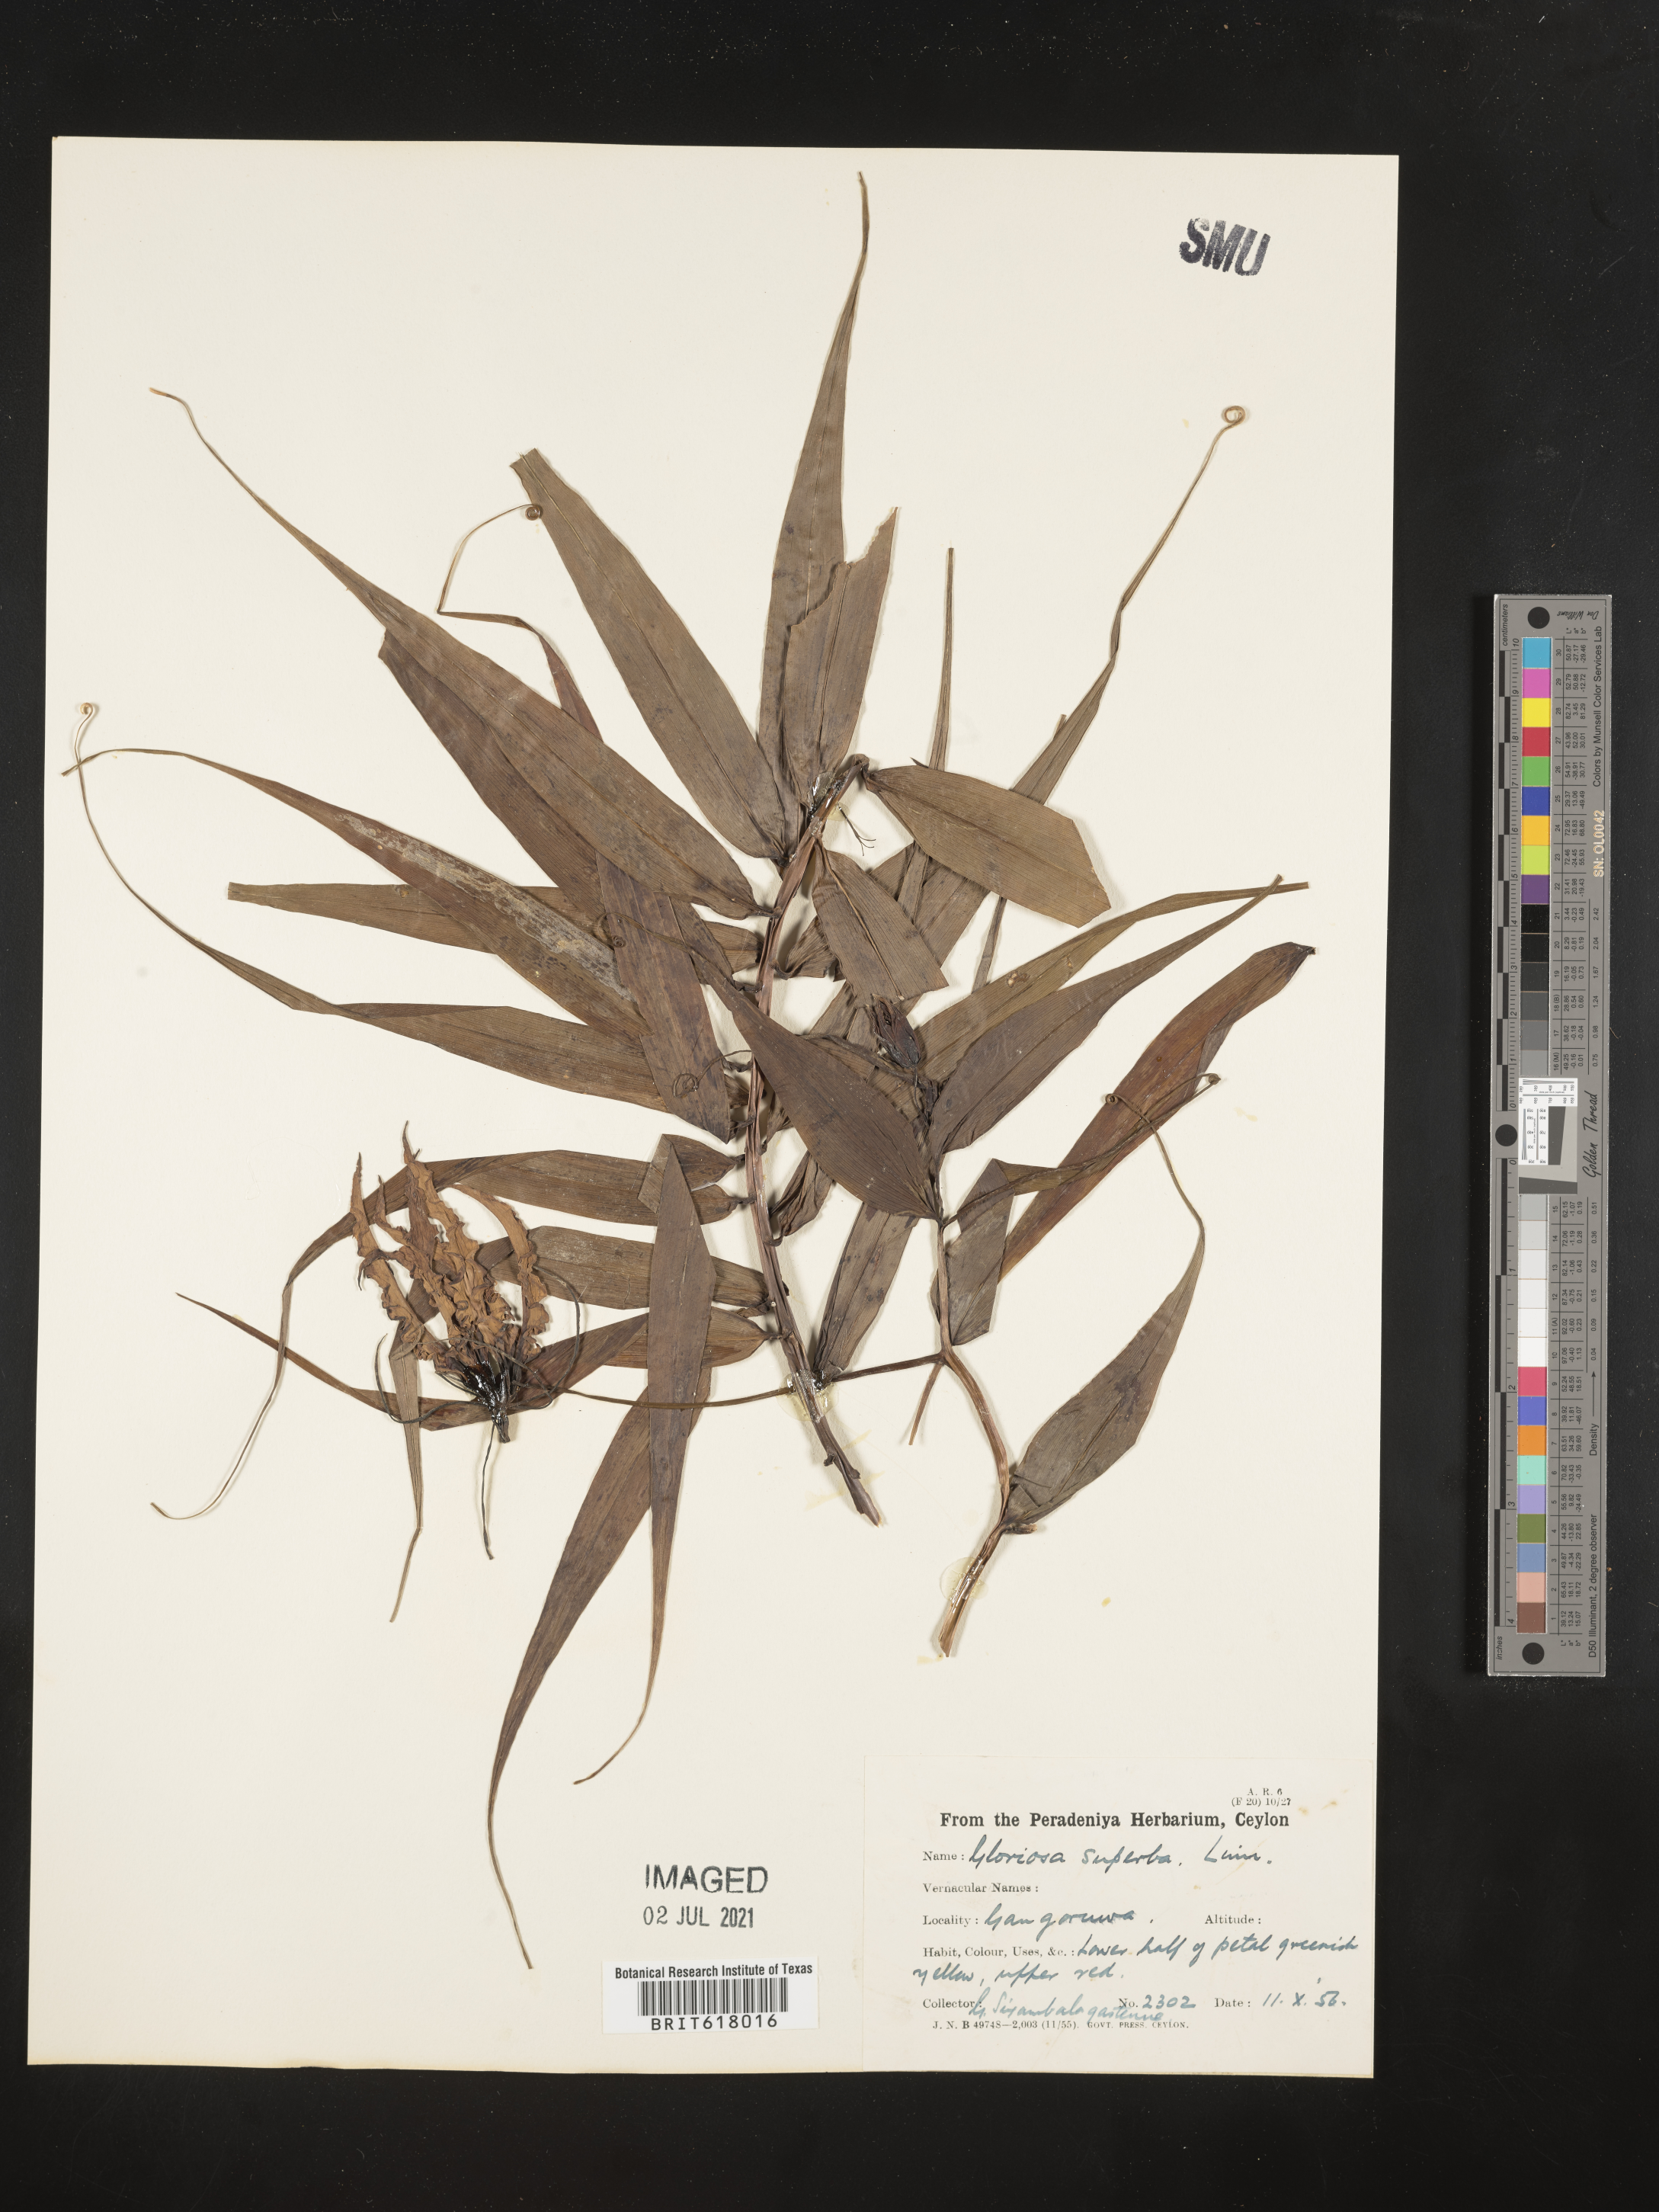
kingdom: Plantae
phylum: Tracheophyta
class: Liliopsida
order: Liliales
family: Colchicaceae
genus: Gloriosa
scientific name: Gloriosa superba
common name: Flame lily
